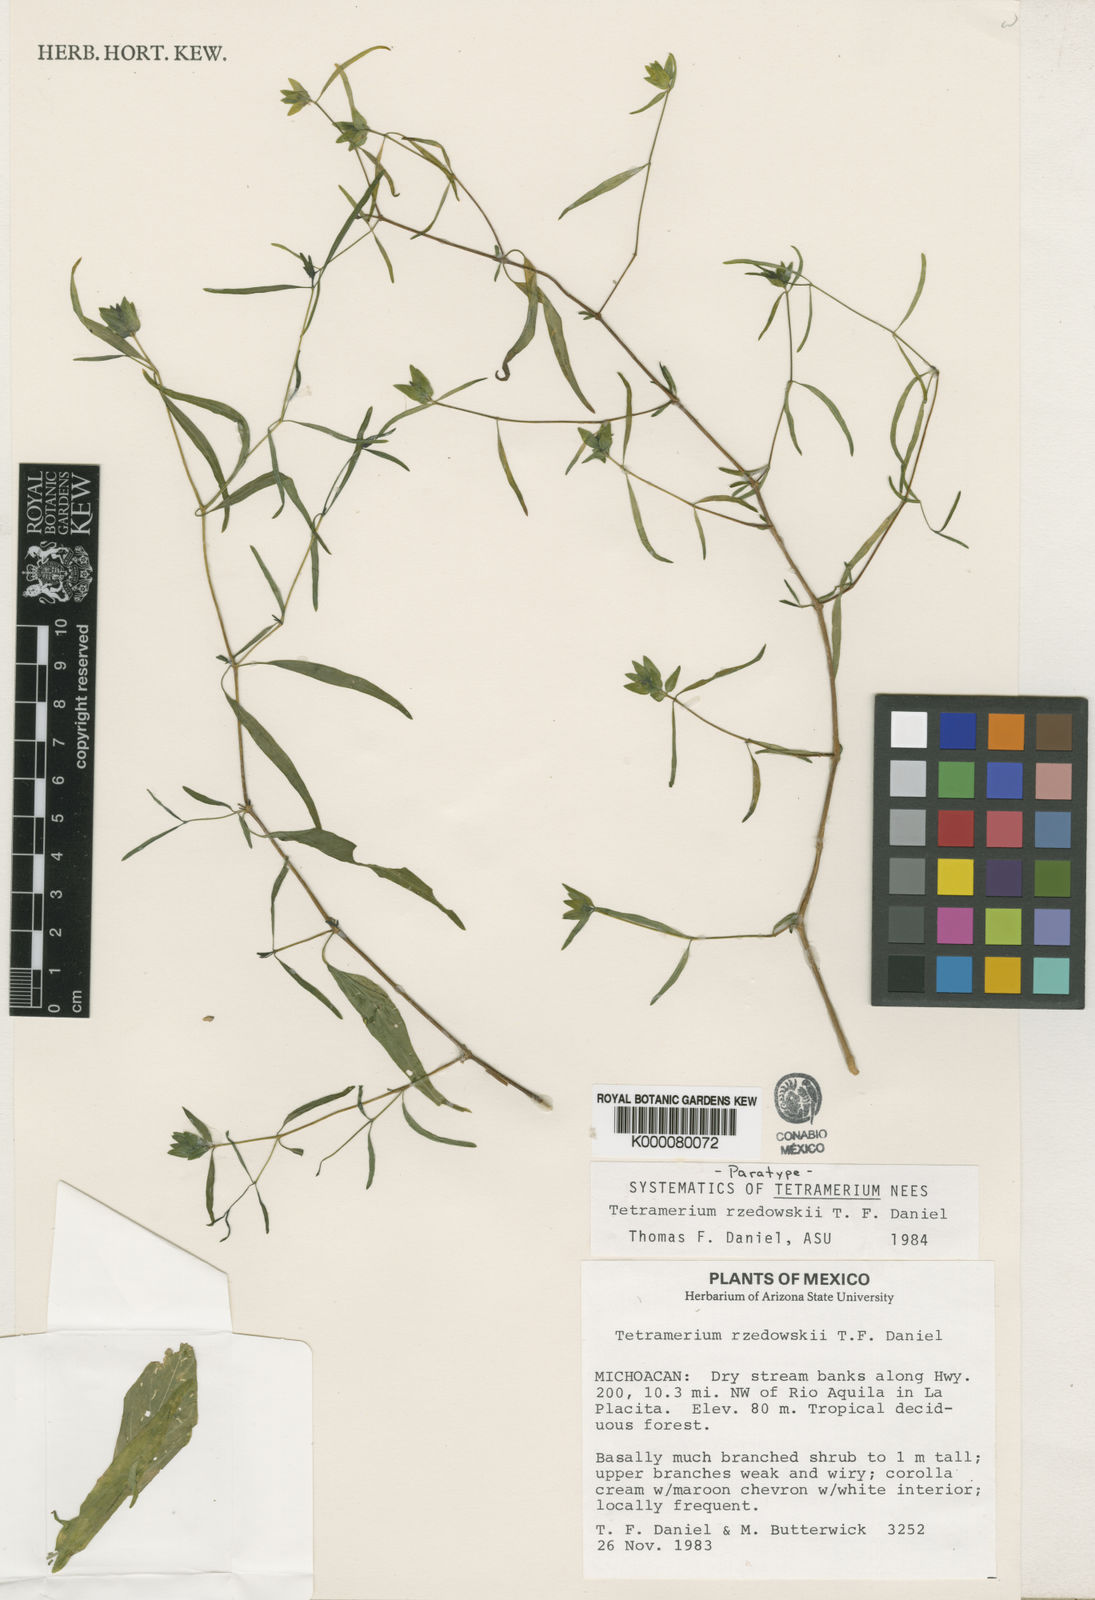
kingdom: Plantae
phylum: Tracheophyta
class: Magnoliopsida
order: Lamiales
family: Acanthaceae
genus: Tetramerium
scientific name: Tetramerium rzedowskii
